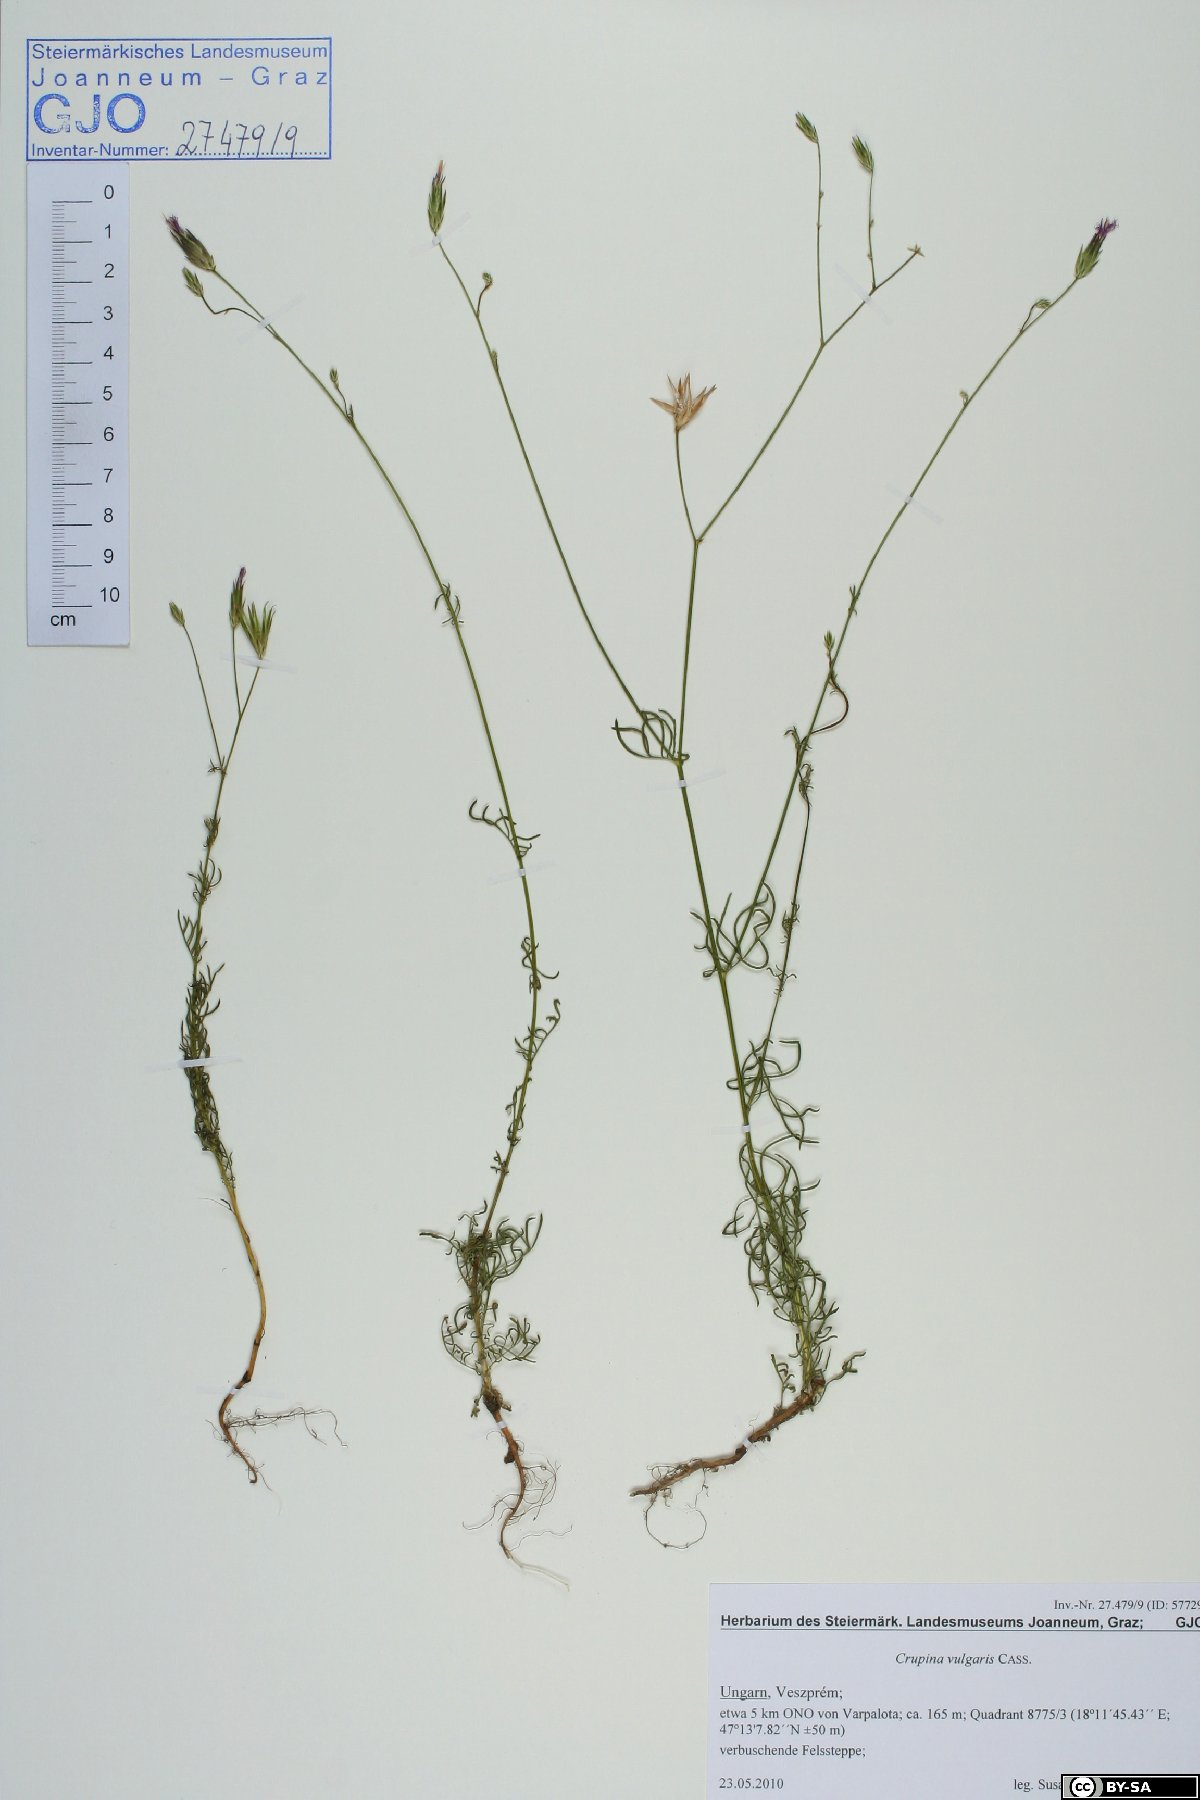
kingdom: Plantae
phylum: Tracheophyta
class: Magnoliopsida
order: Asterales
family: Asteraceae
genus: Crupina
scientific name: Crupina vulgaris
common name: Common crupina
